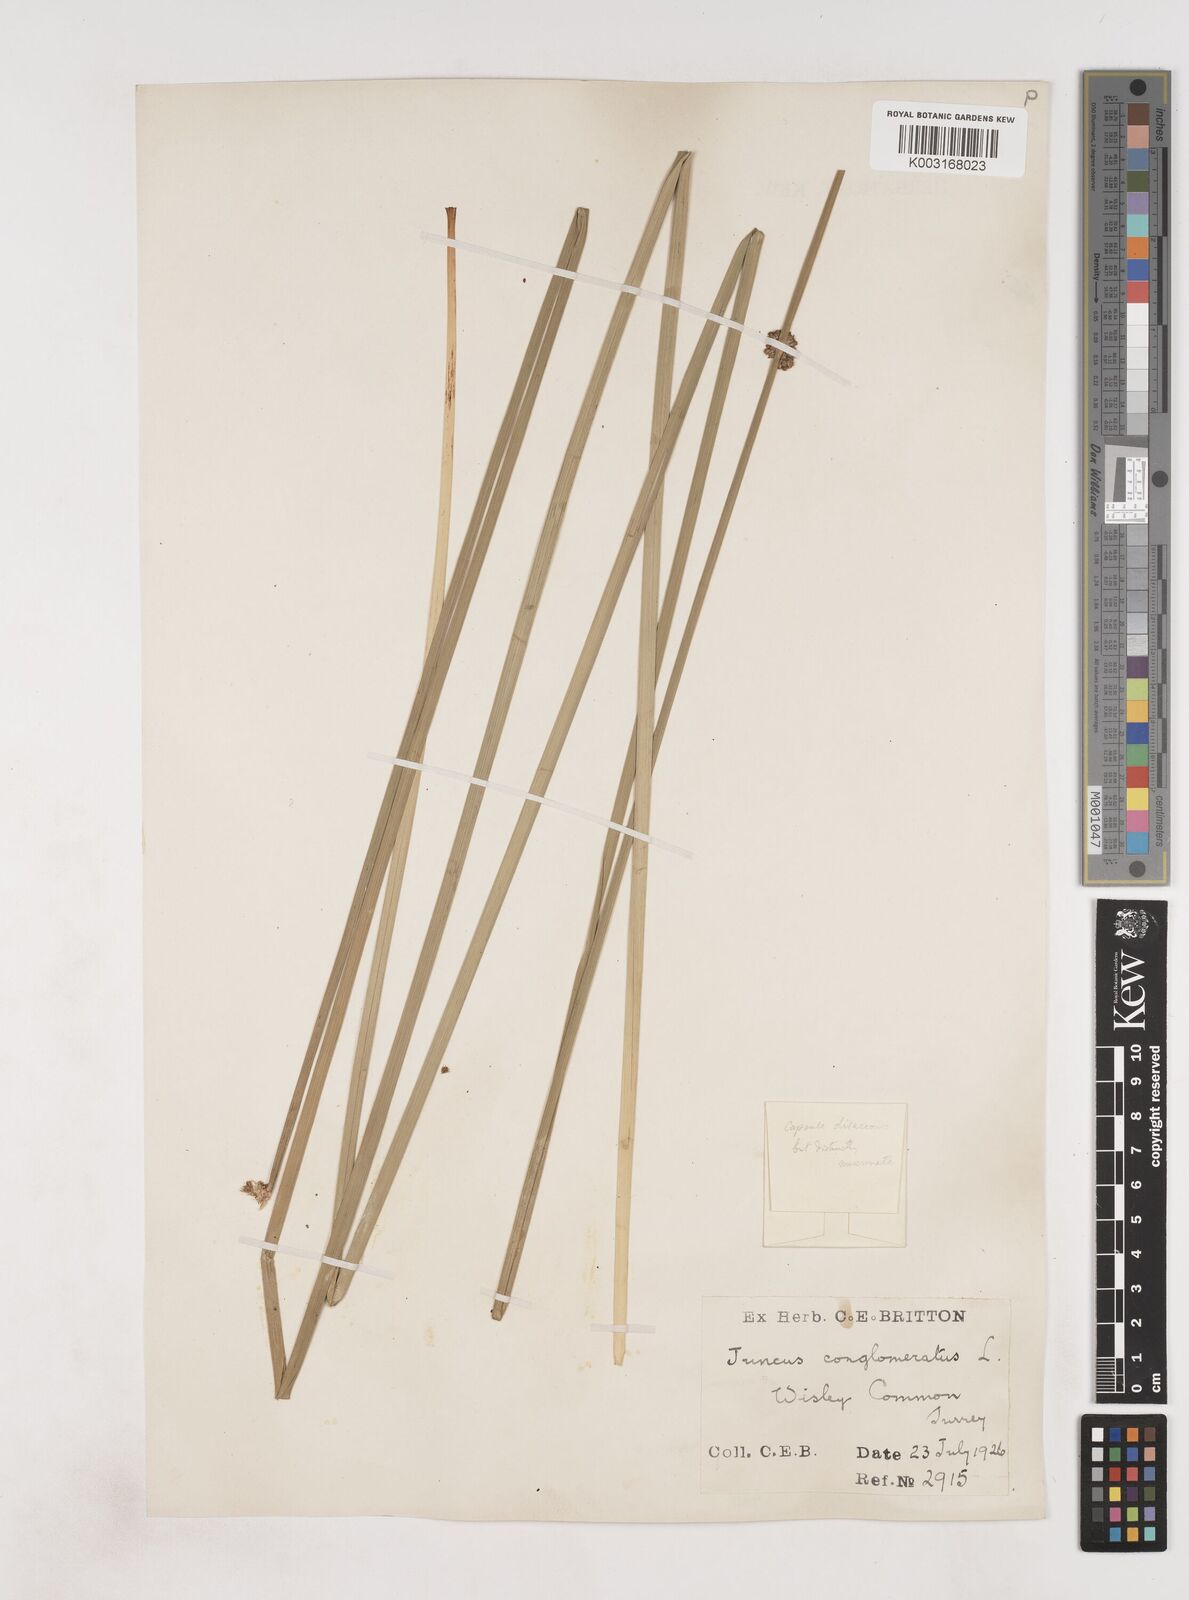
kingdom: Plantae
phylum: Tracheophyta
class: Liliopsida
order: Poales
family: Juncaceae
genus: Juncus
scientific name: Juncus conglomeratus
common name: Compact rush
